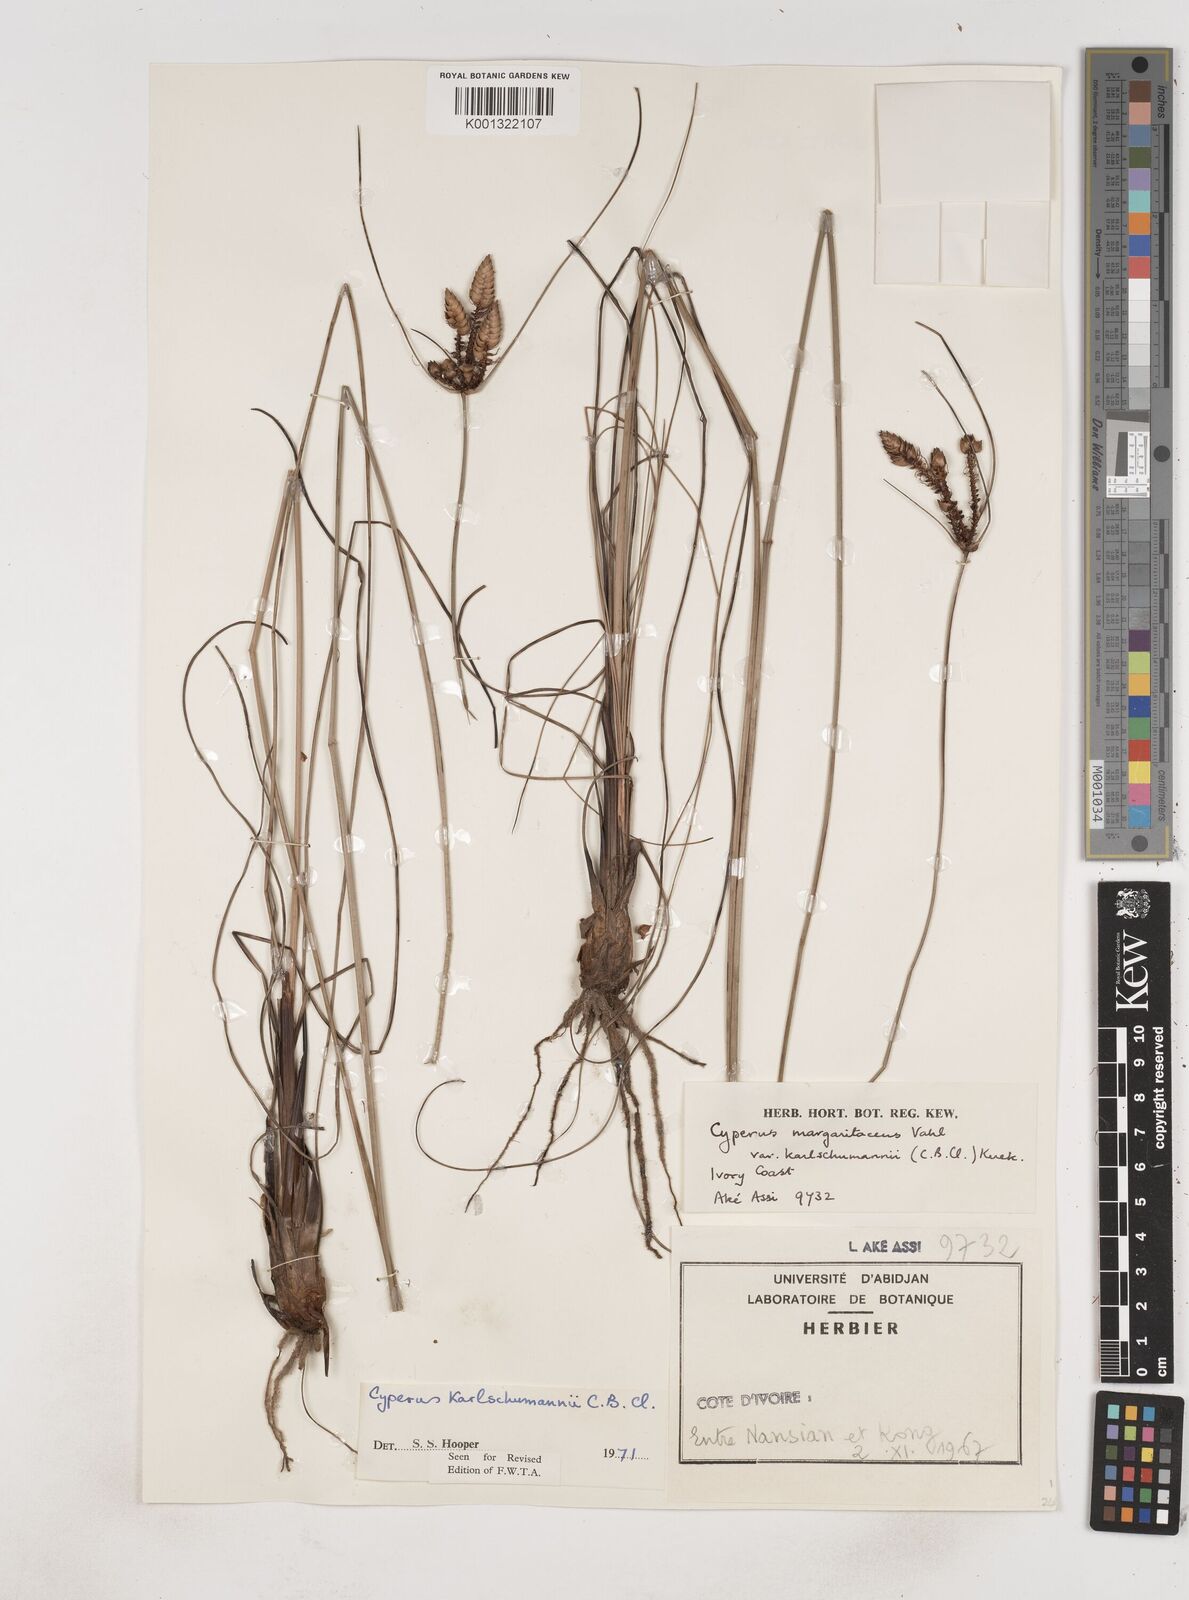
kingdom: Plantae
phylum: Tracheophyta
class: Liliopsida
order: Poales
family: Cyperaceae
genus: Cyperus
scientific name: Cyperus karlschumannii
